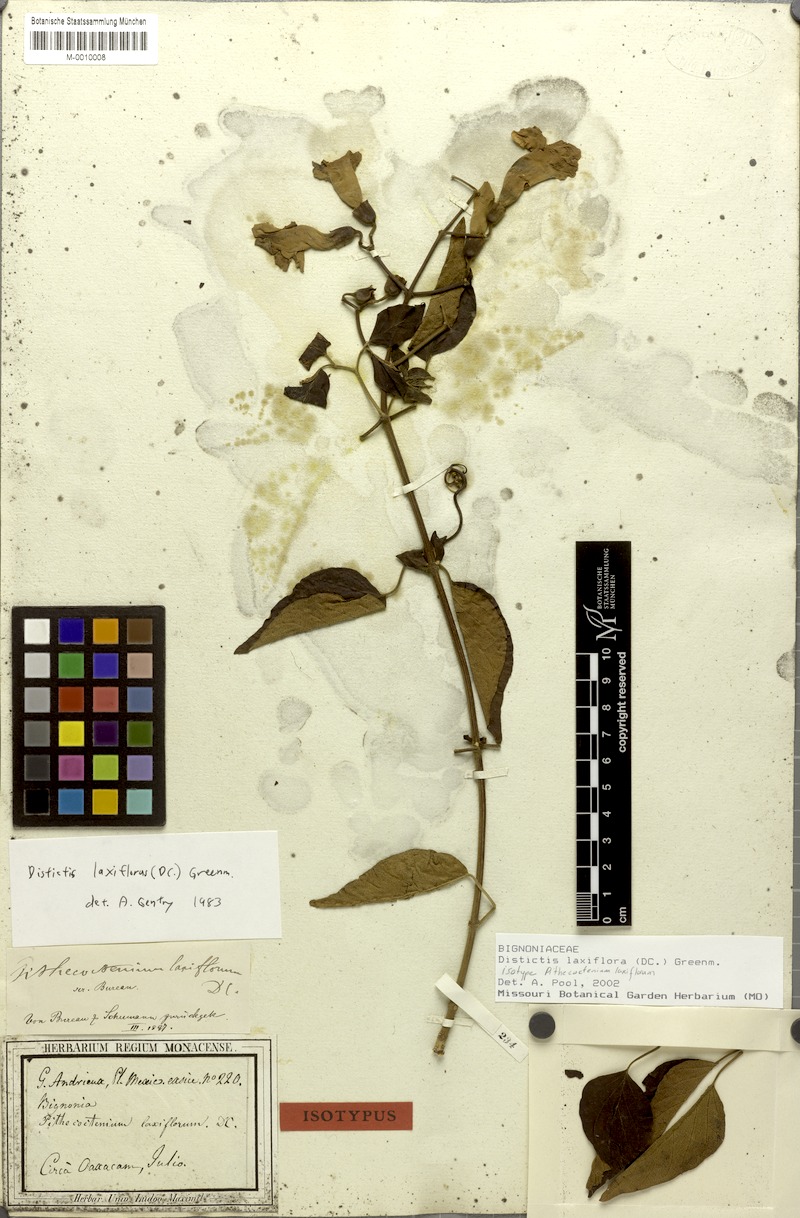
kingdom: Plantae
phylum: Tracheophyta
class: Magnoliopsida
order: Lamiales
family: Bignoniaceae
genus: Amphilophium
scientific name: Amphilophium laxiflorum
